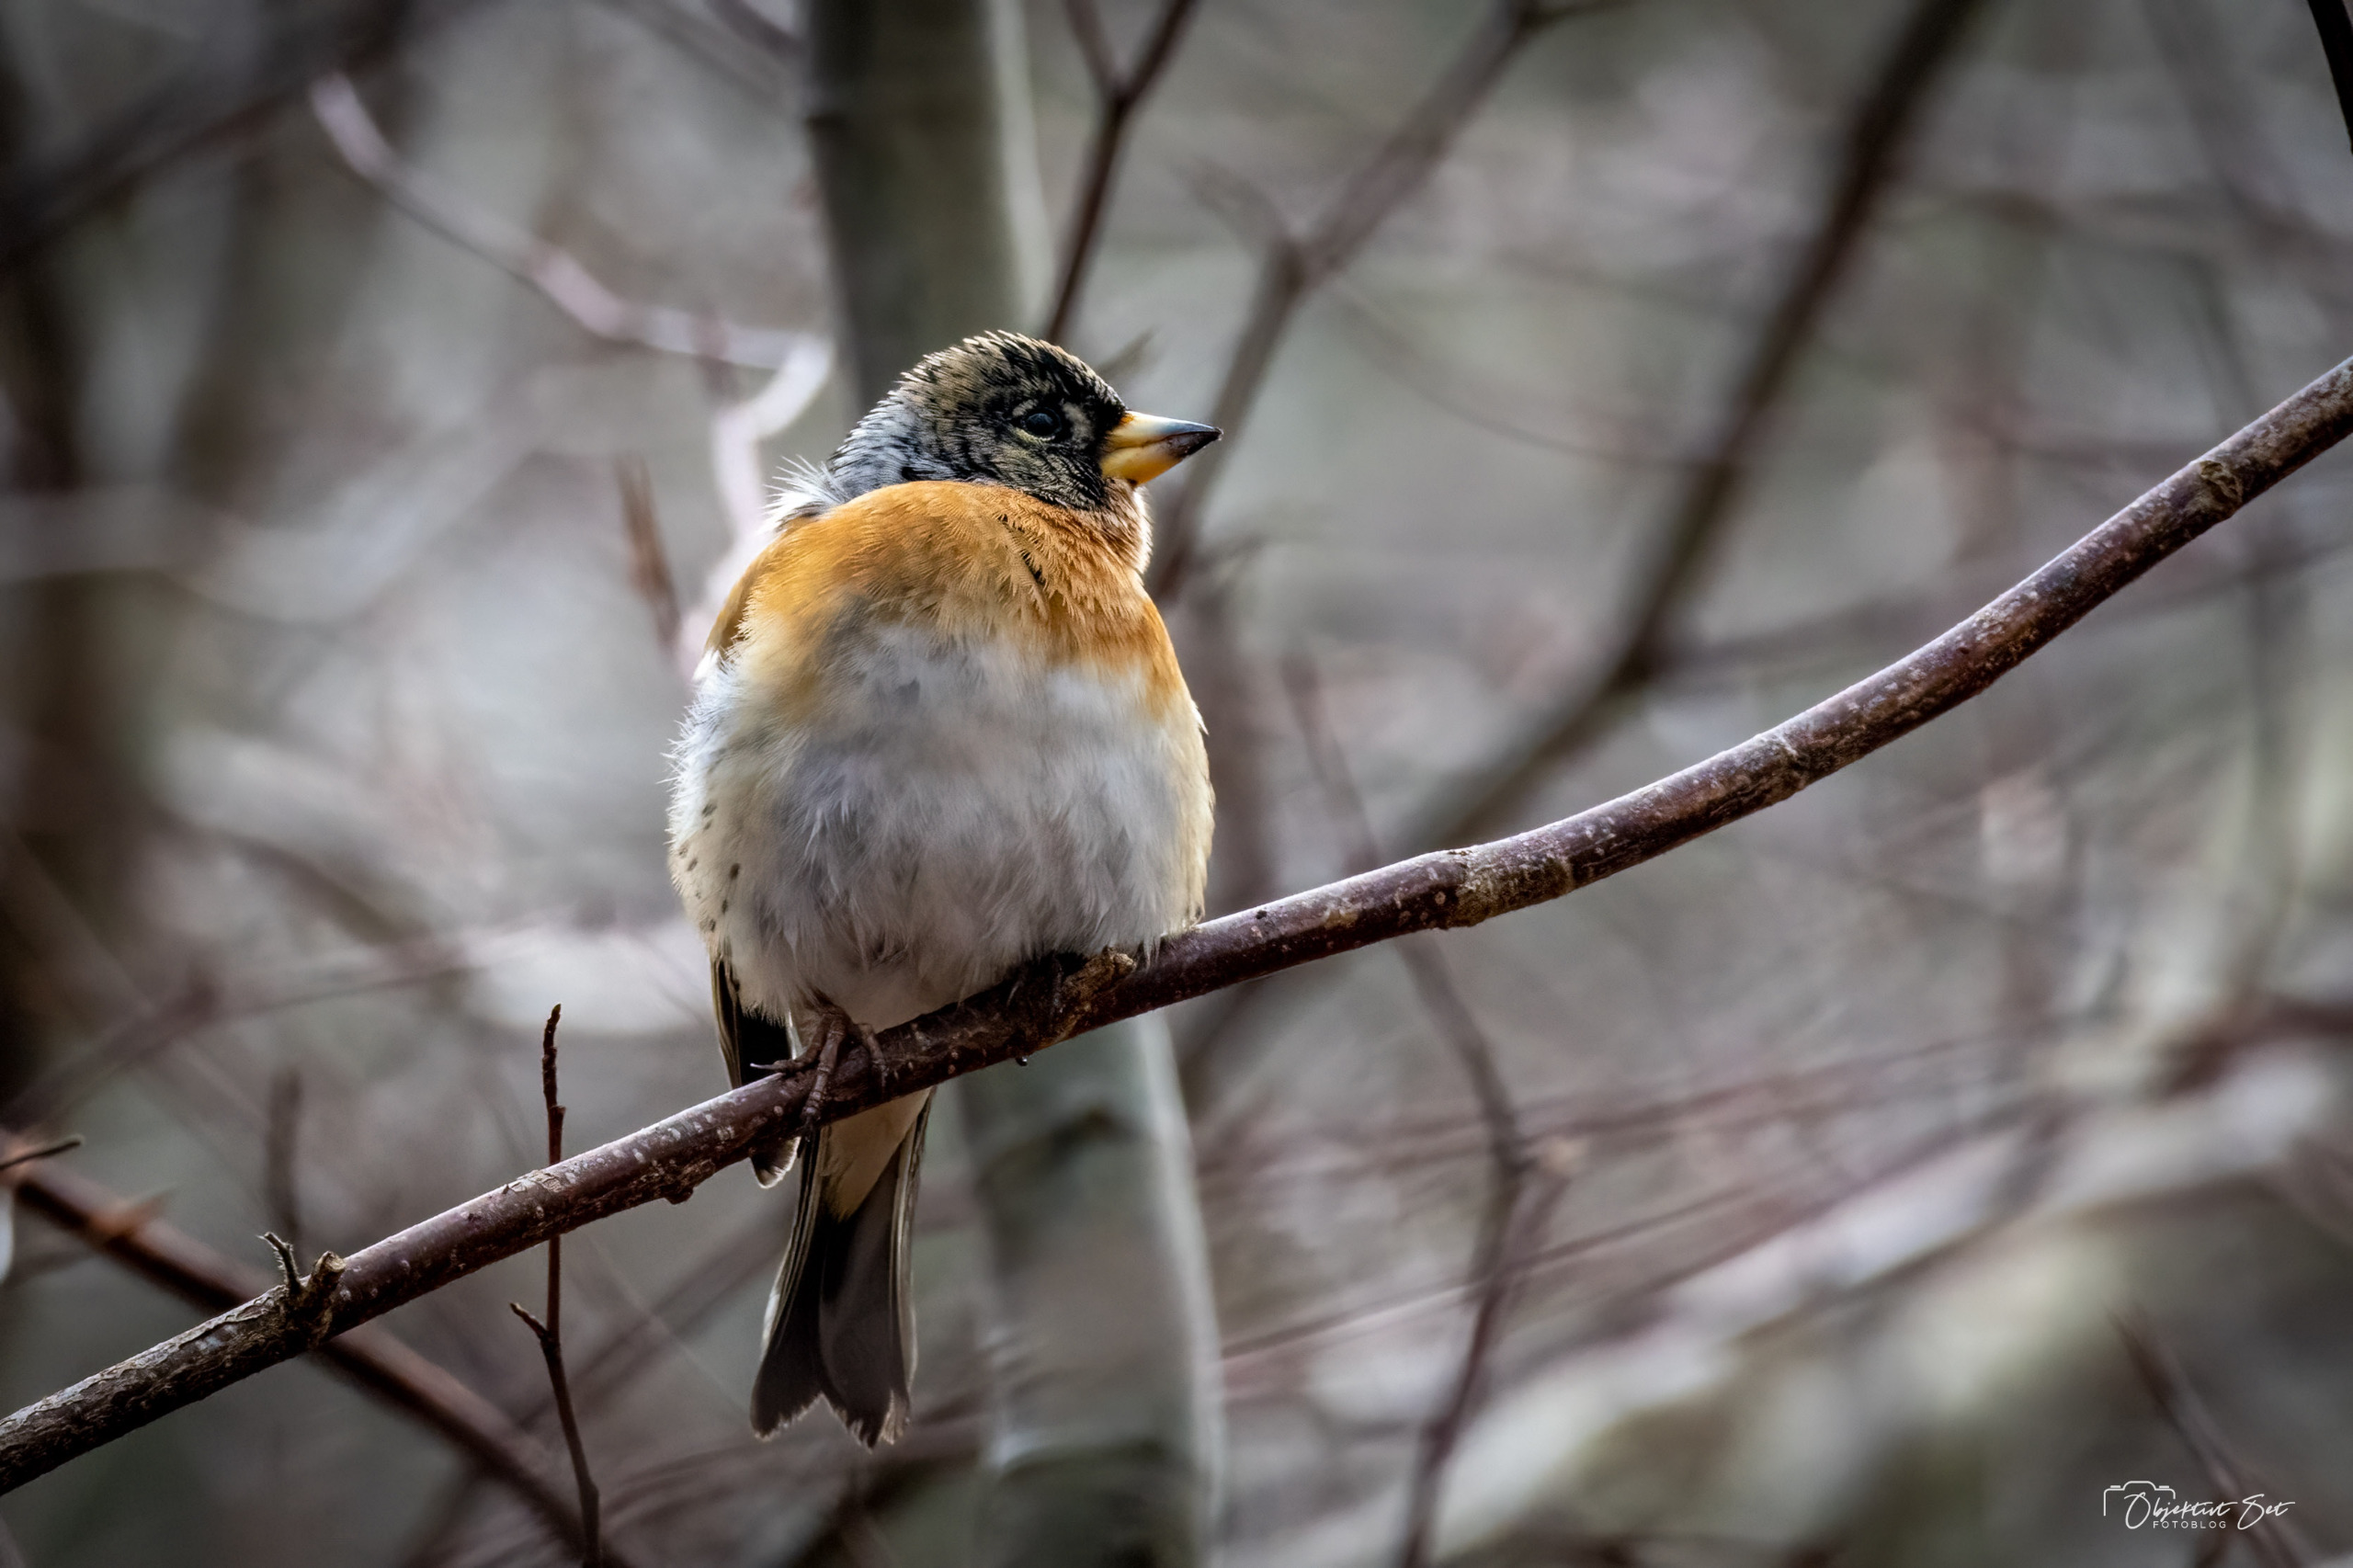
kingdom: Animalia
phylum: Chordata
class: Aves
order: Passeriformes
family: Fringillidae
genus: Fringilla
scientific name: Fringilla montifringilla
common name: Kvækerfinke
